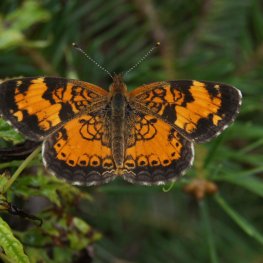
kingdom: Animalia
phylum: Arthropoda
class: Insecta
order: Lepidoptera
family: Nymphalidae
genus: Phyciodes
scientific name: Phyciodes tharos
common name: Northern Crescent
